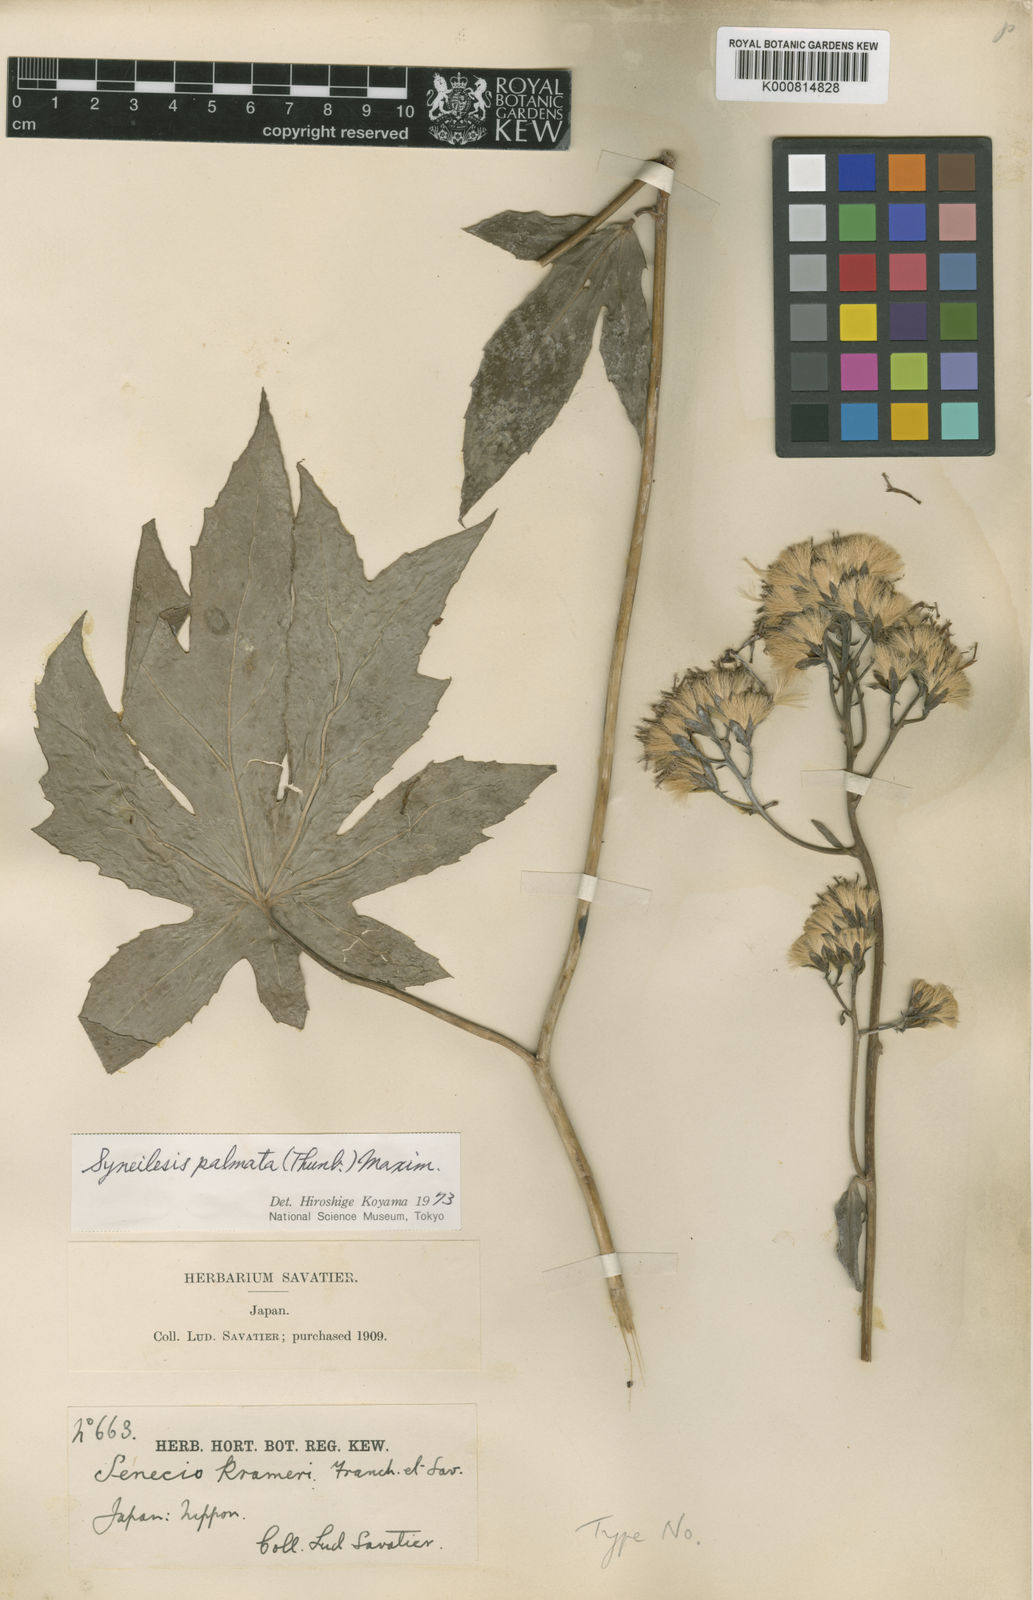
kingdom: Plantae
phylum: Tracheophyta
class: Magnoliopsida
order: Asterales
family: Asteraceae
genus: Syneilesis
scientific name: Syneilesis palmata
